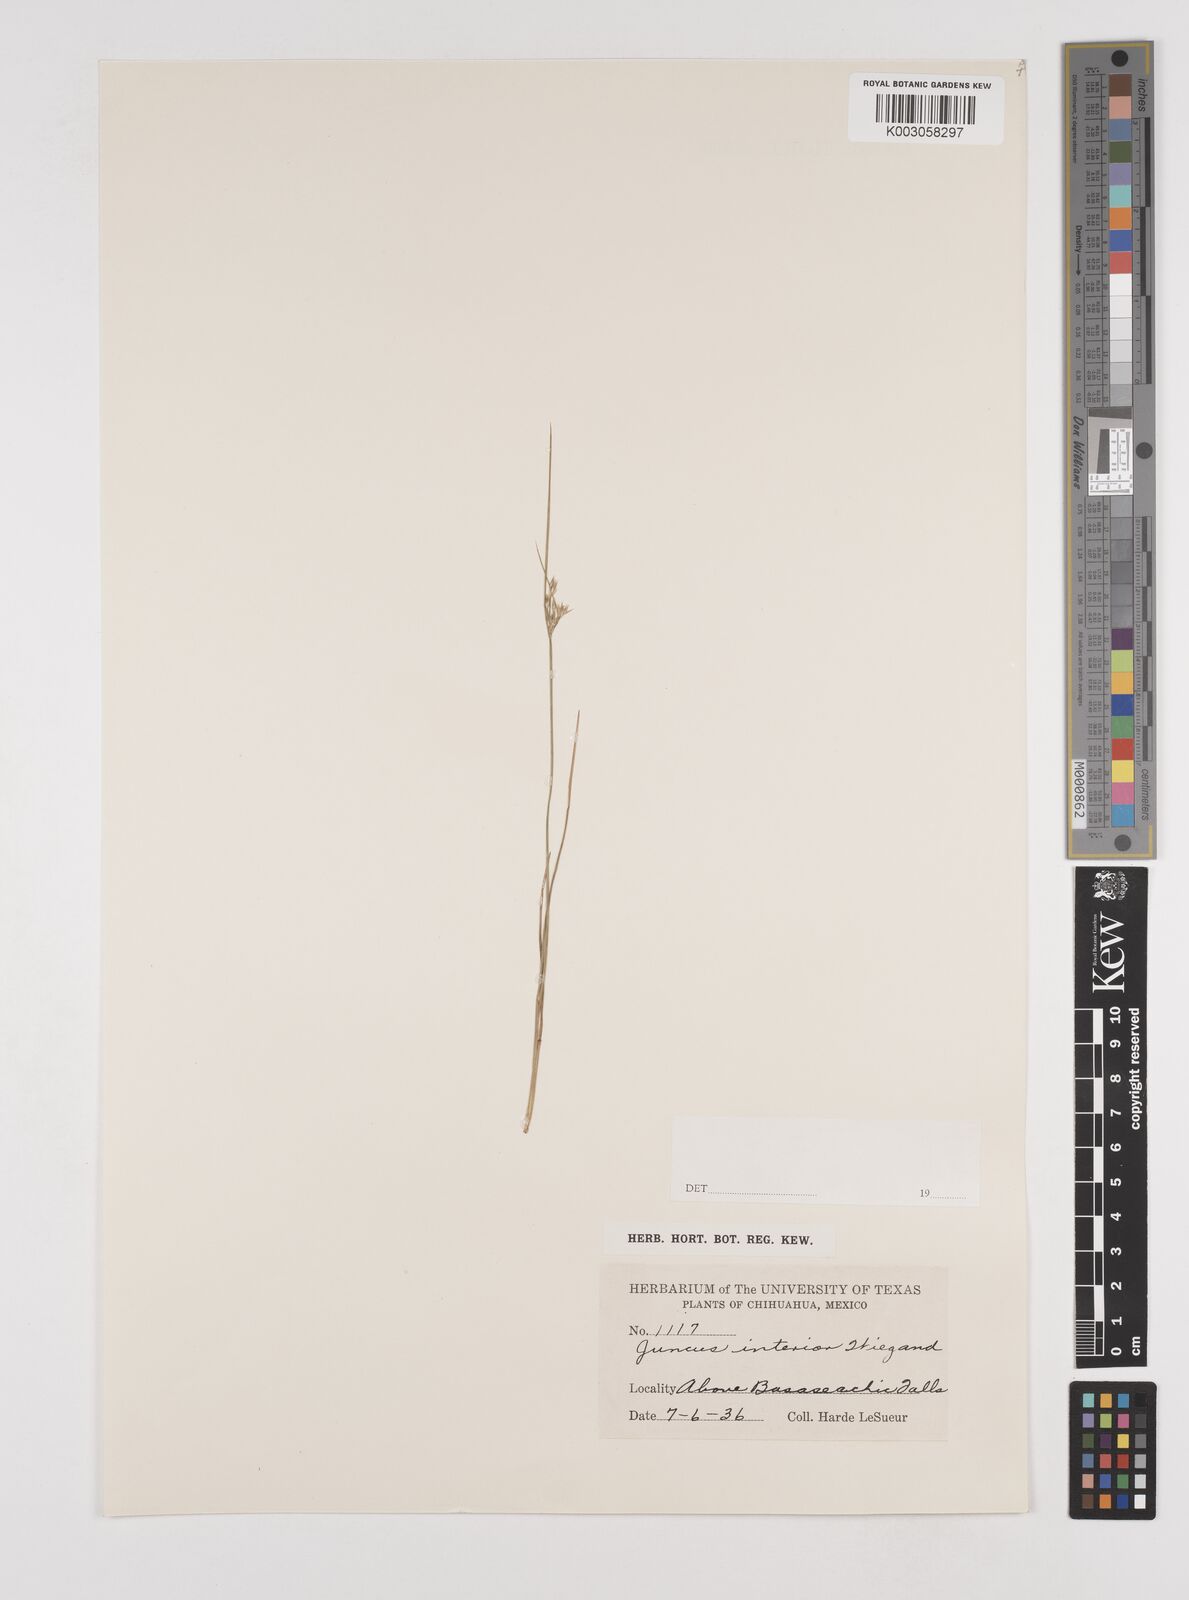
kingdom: Plantae
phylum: Tracheophyta
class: Liliopsida
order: Poales
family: Juncaceae
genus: Juncus
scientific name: Juncus interior
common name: Interior rush
